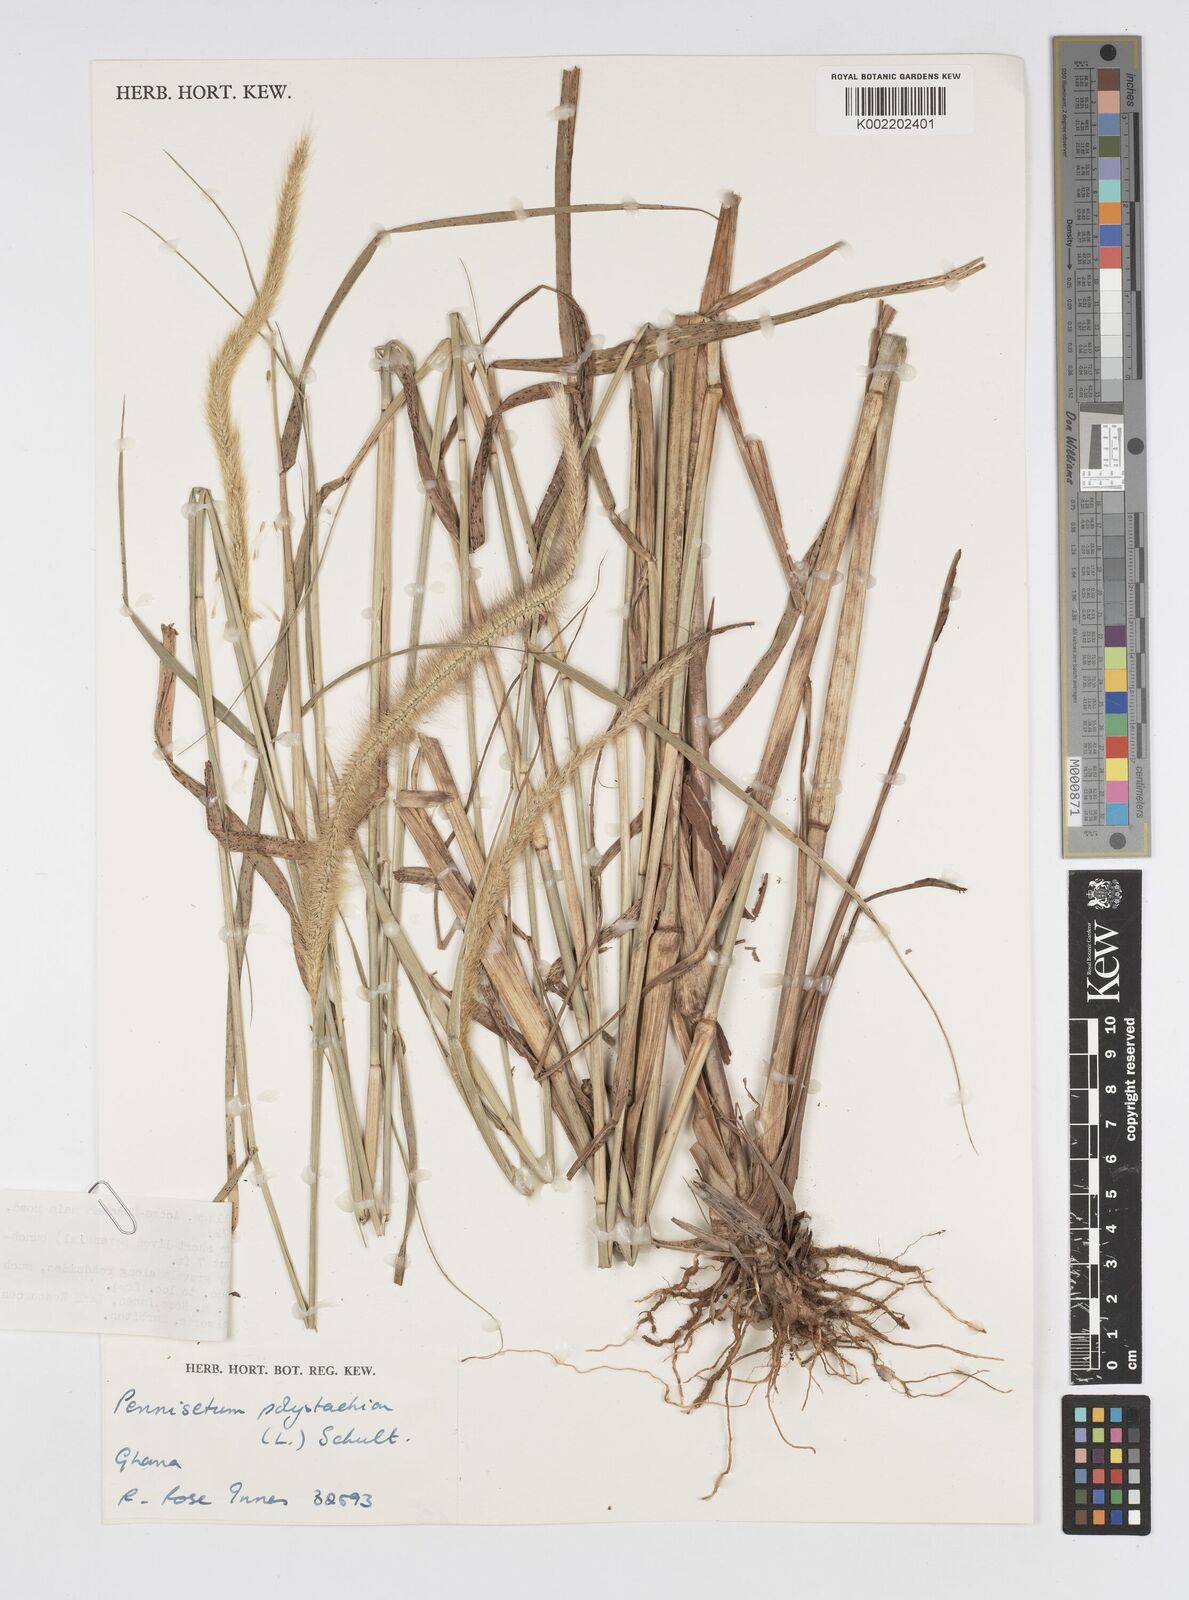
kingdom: Plantae
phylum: Tracheophyta
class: Liliopsida
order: Poales
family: Poaceae
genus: Setaria
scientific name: Setaria parviflora
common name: Knotroot bristle-grass
